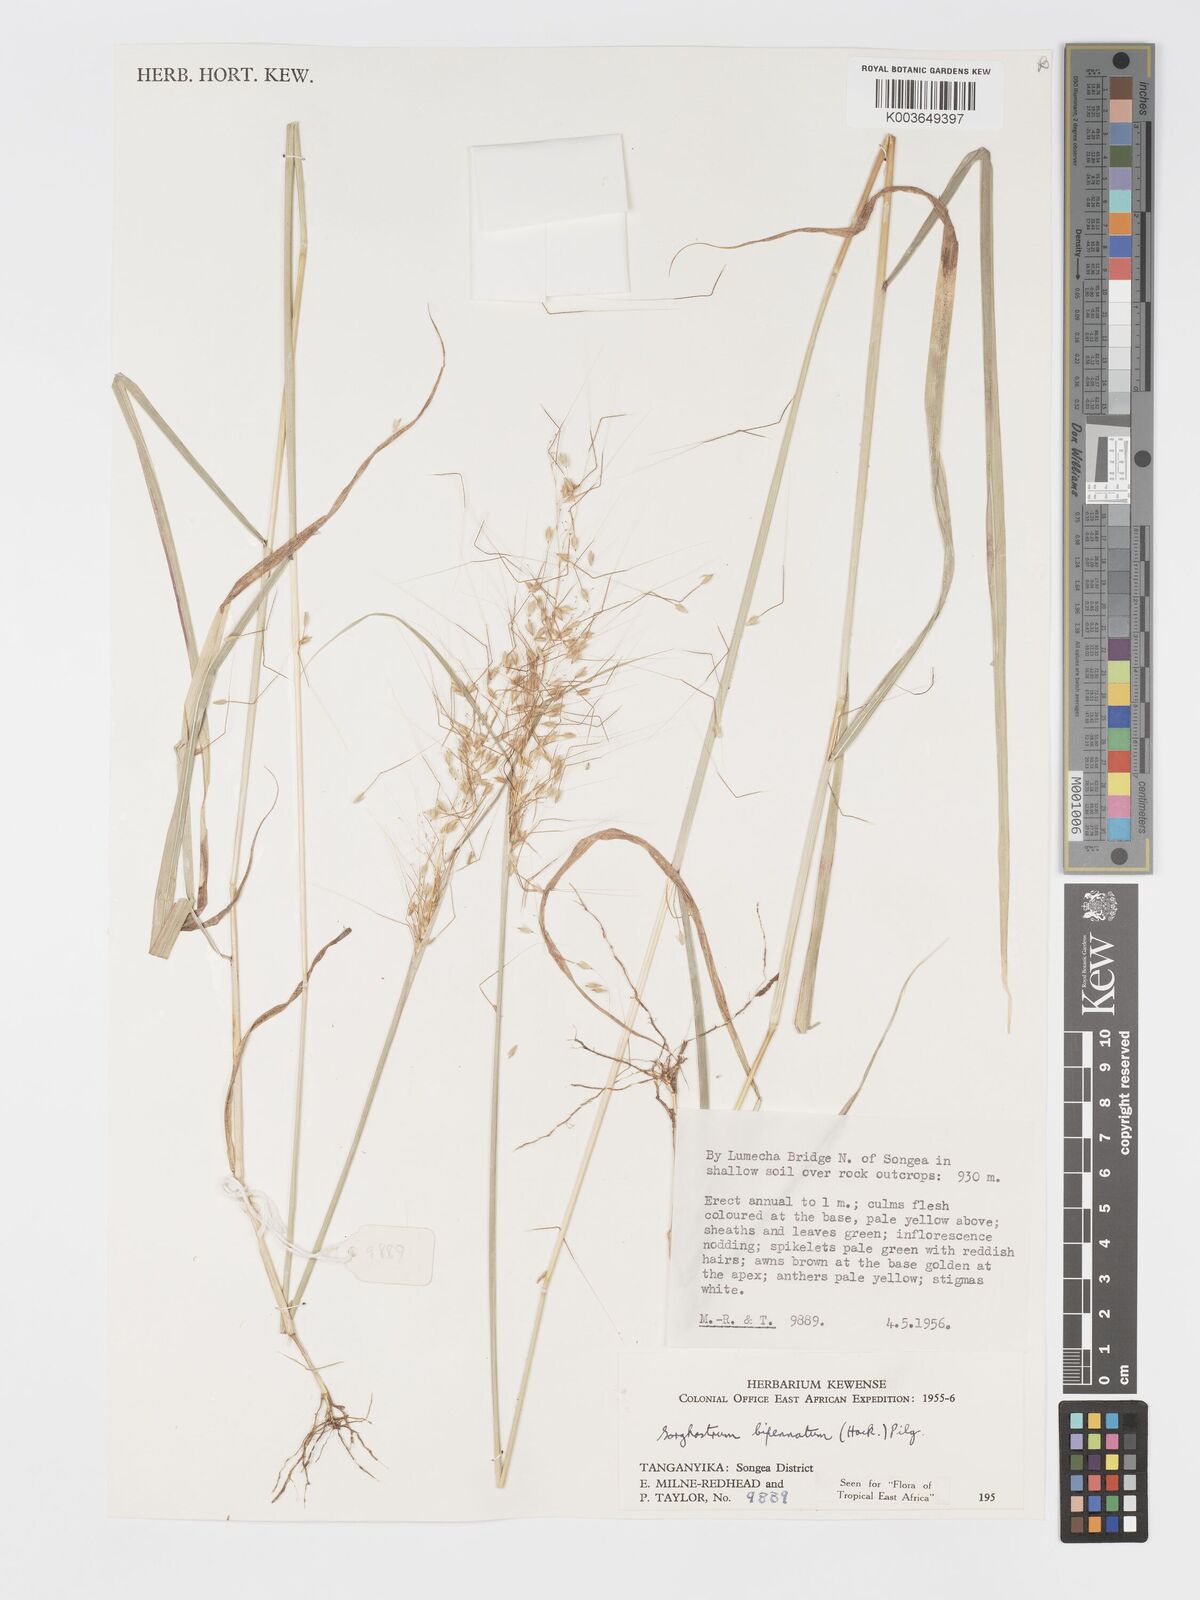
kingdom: Plantae
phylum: Tracheophyta
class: Liliopsida
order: Poales
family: Poaceae
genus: Sorghastrum
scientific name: Sorghastrum incompletum
